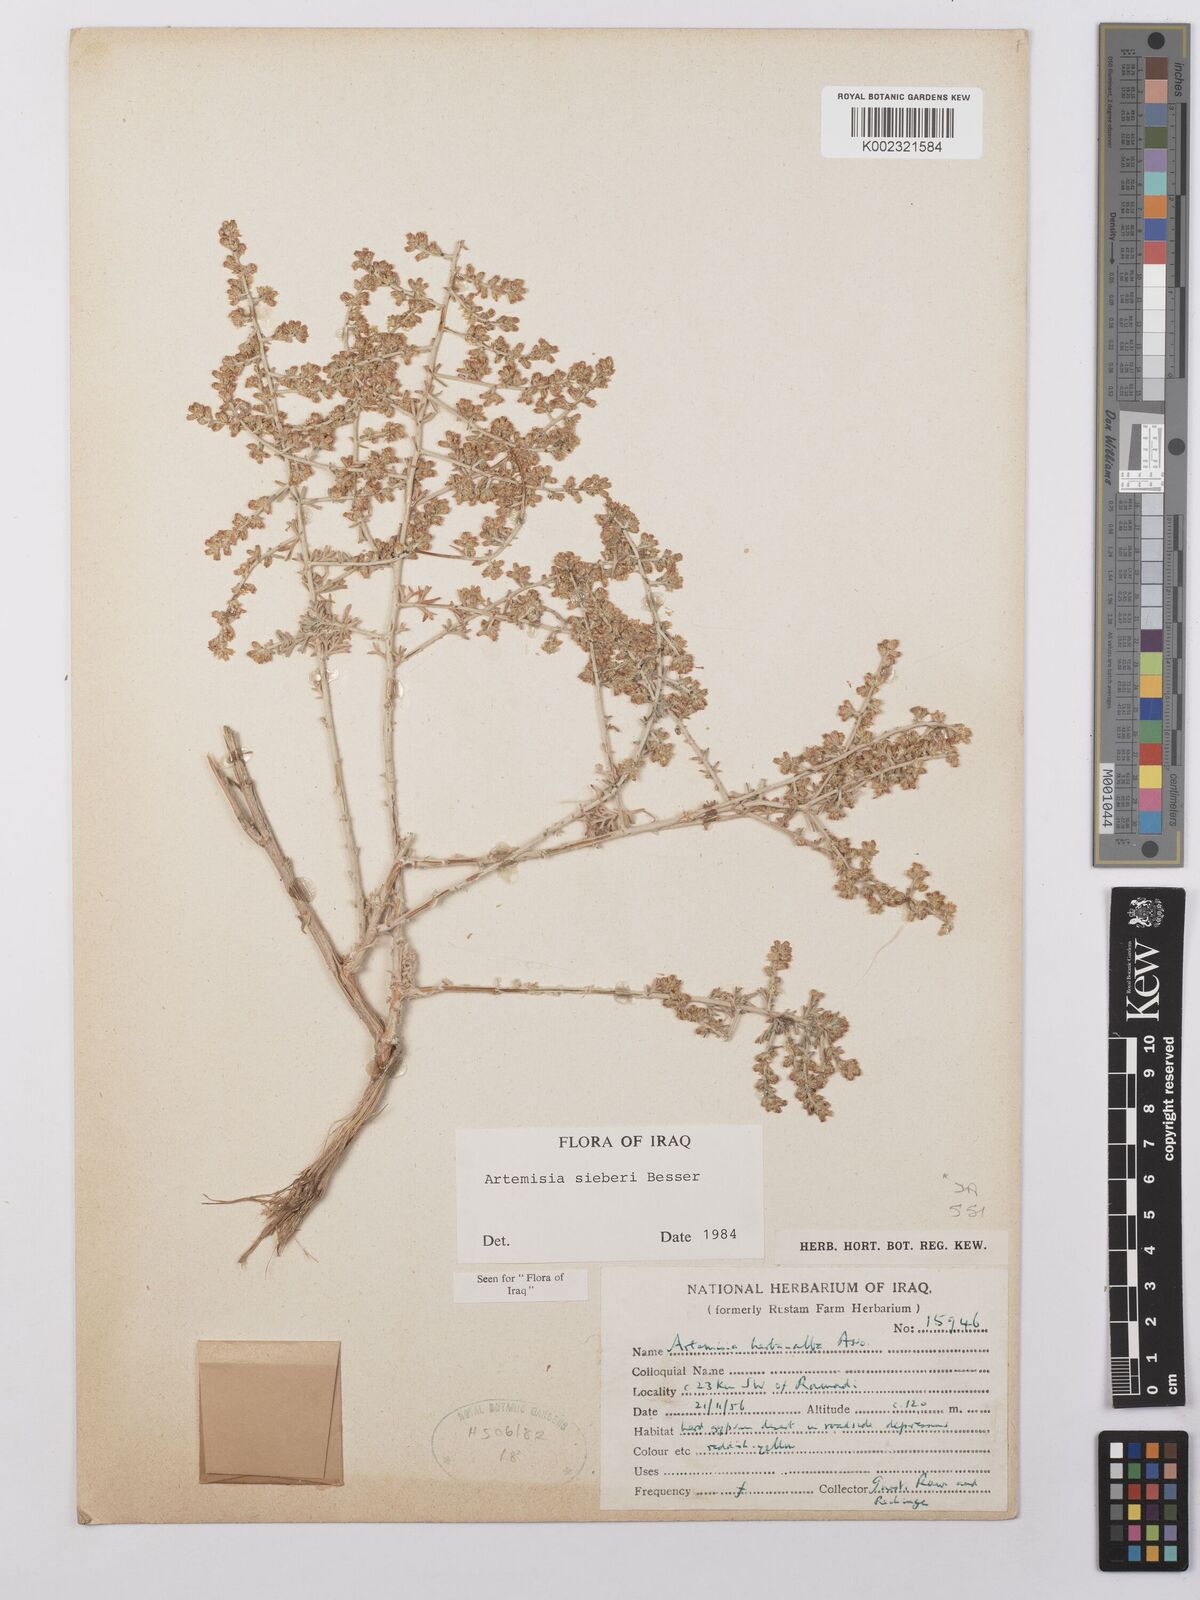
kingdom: Plantae
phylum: Tracheophyta
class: Magnoliopsida
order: Asterales
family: Asteraceae
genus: Artemisia
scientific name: Artemisia sieberi
